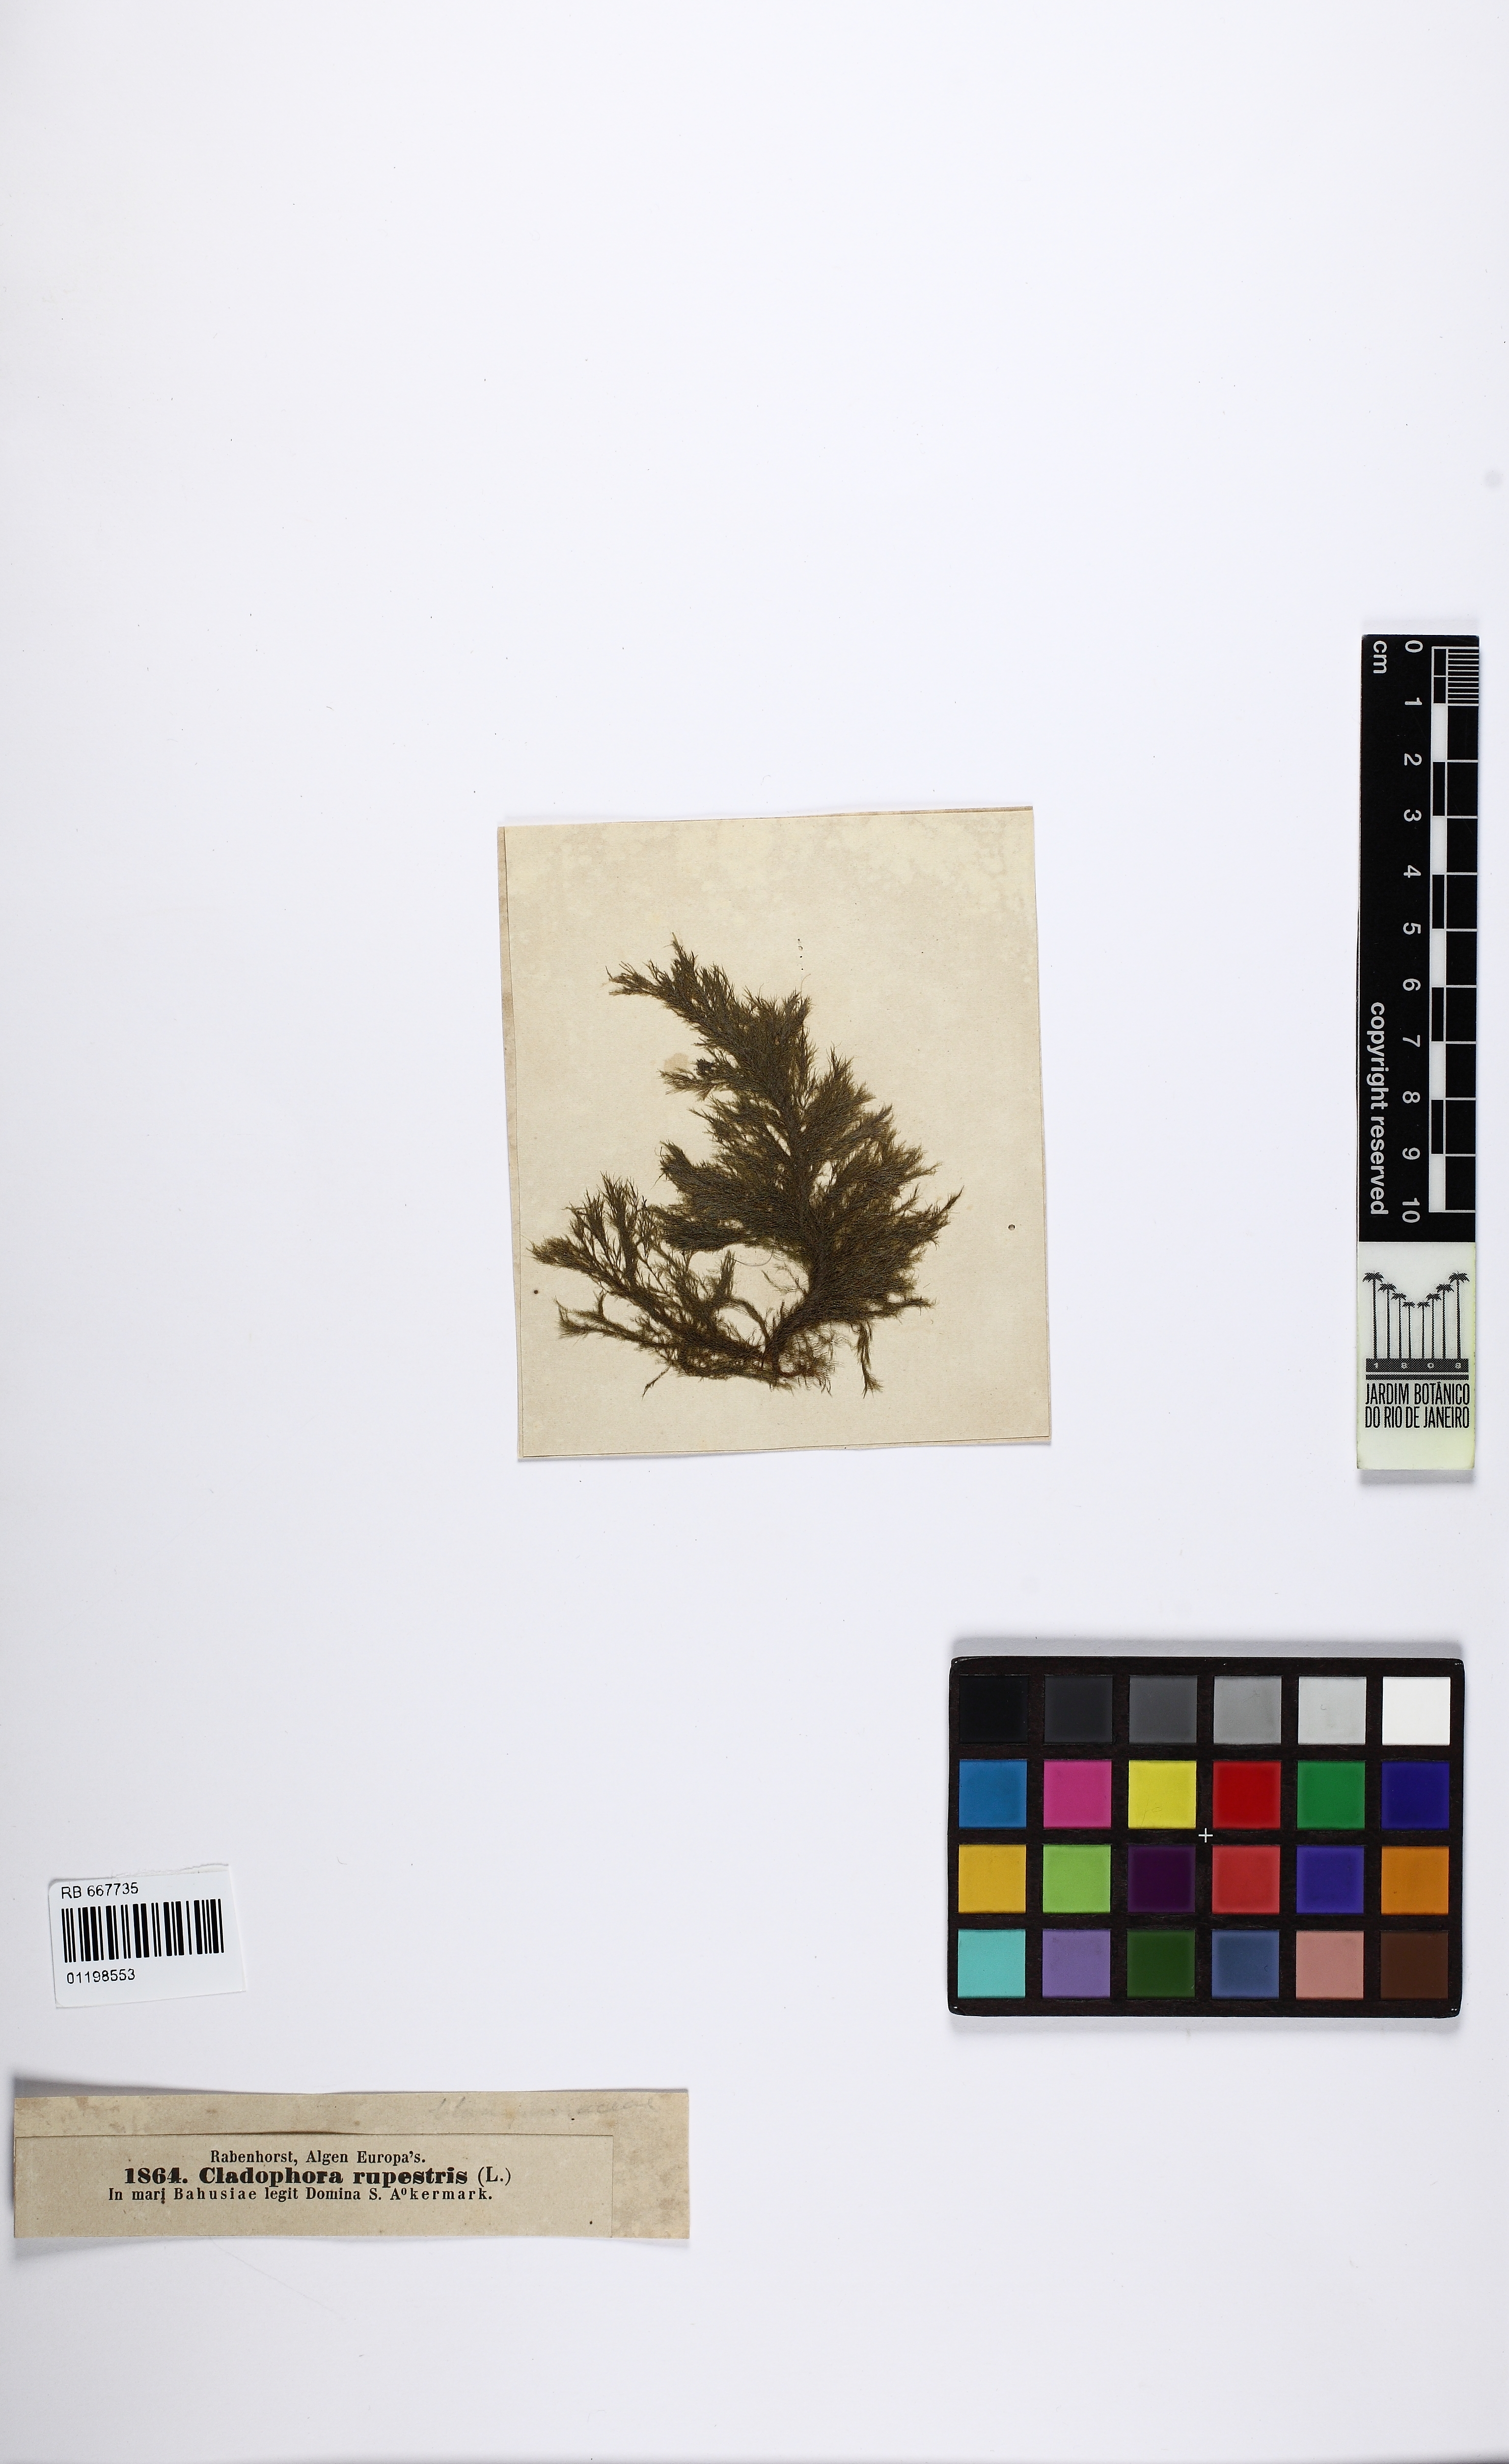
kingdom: Plantae
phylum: Chlorophyta
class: Ulvophyceae
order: Cladophorales
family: Cladophoraceae
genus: Cladophora
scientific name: Cladophora rupestris
